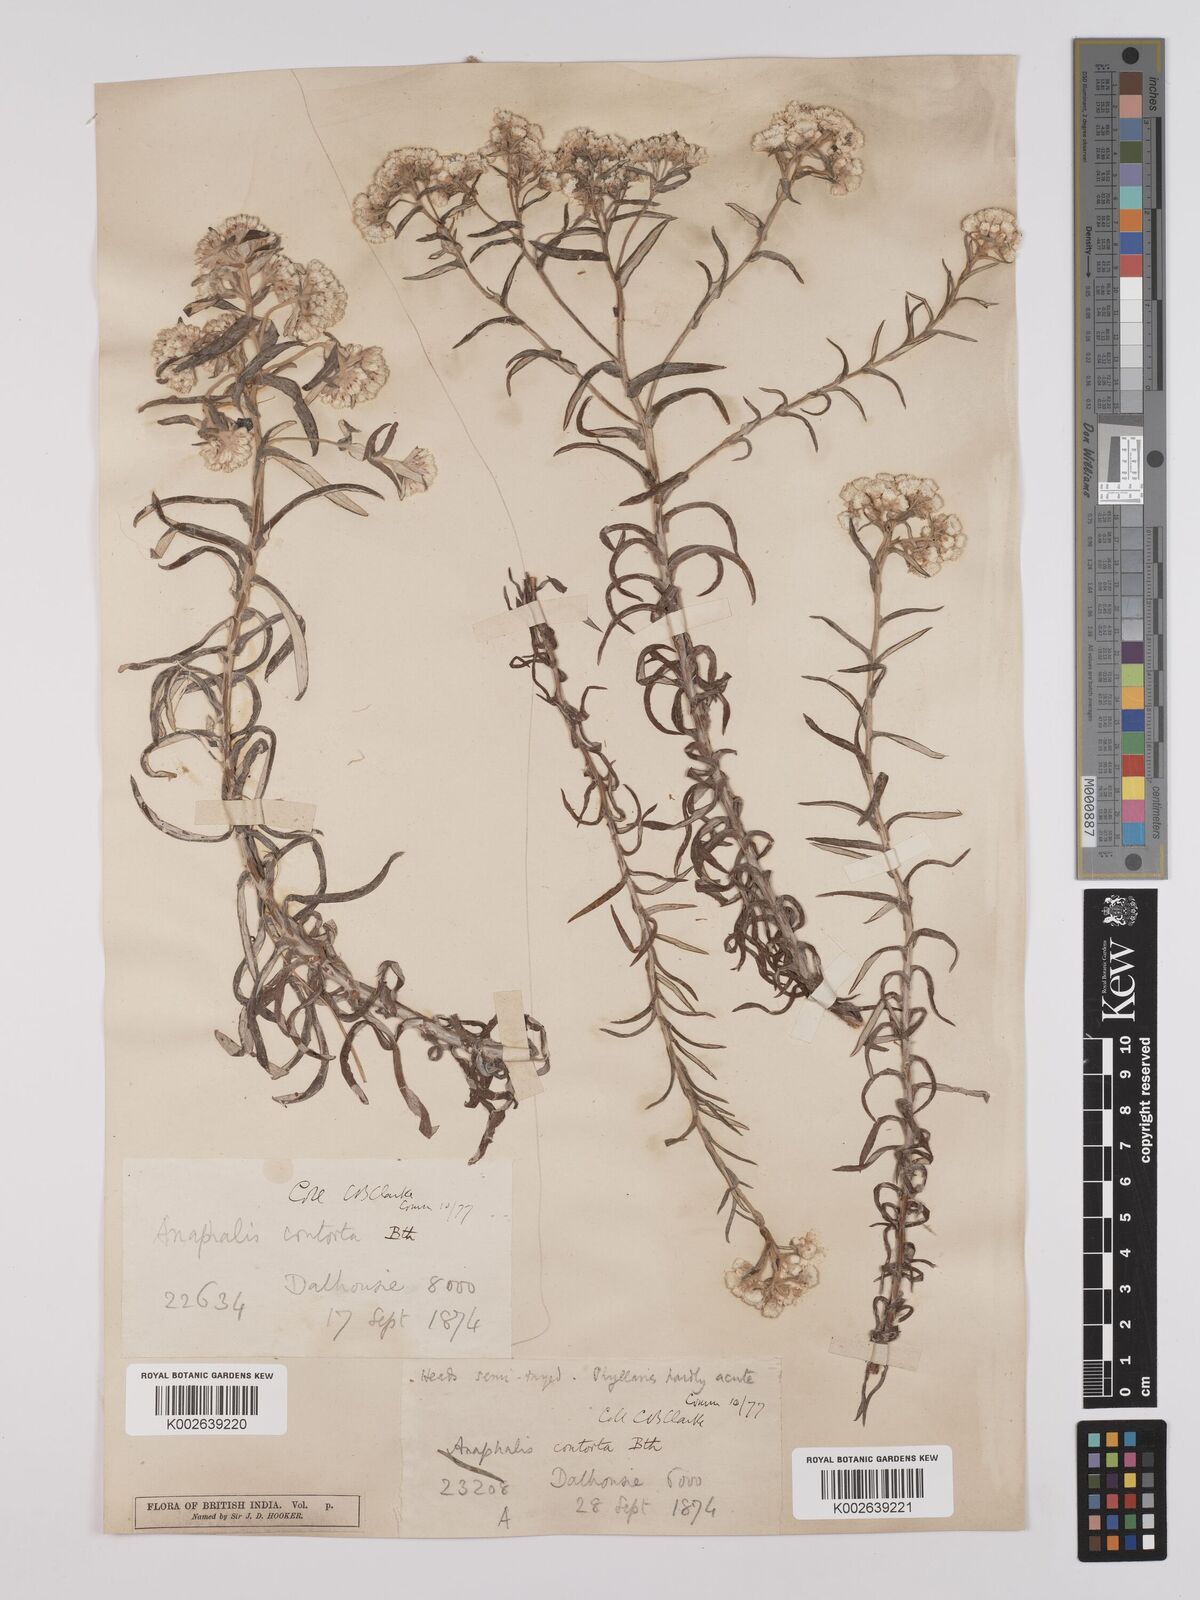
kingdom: Plantae
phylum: Tracheophyta
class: Magnoliopsida
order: Asterales
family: Asteraceae
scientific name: Asteraceae
